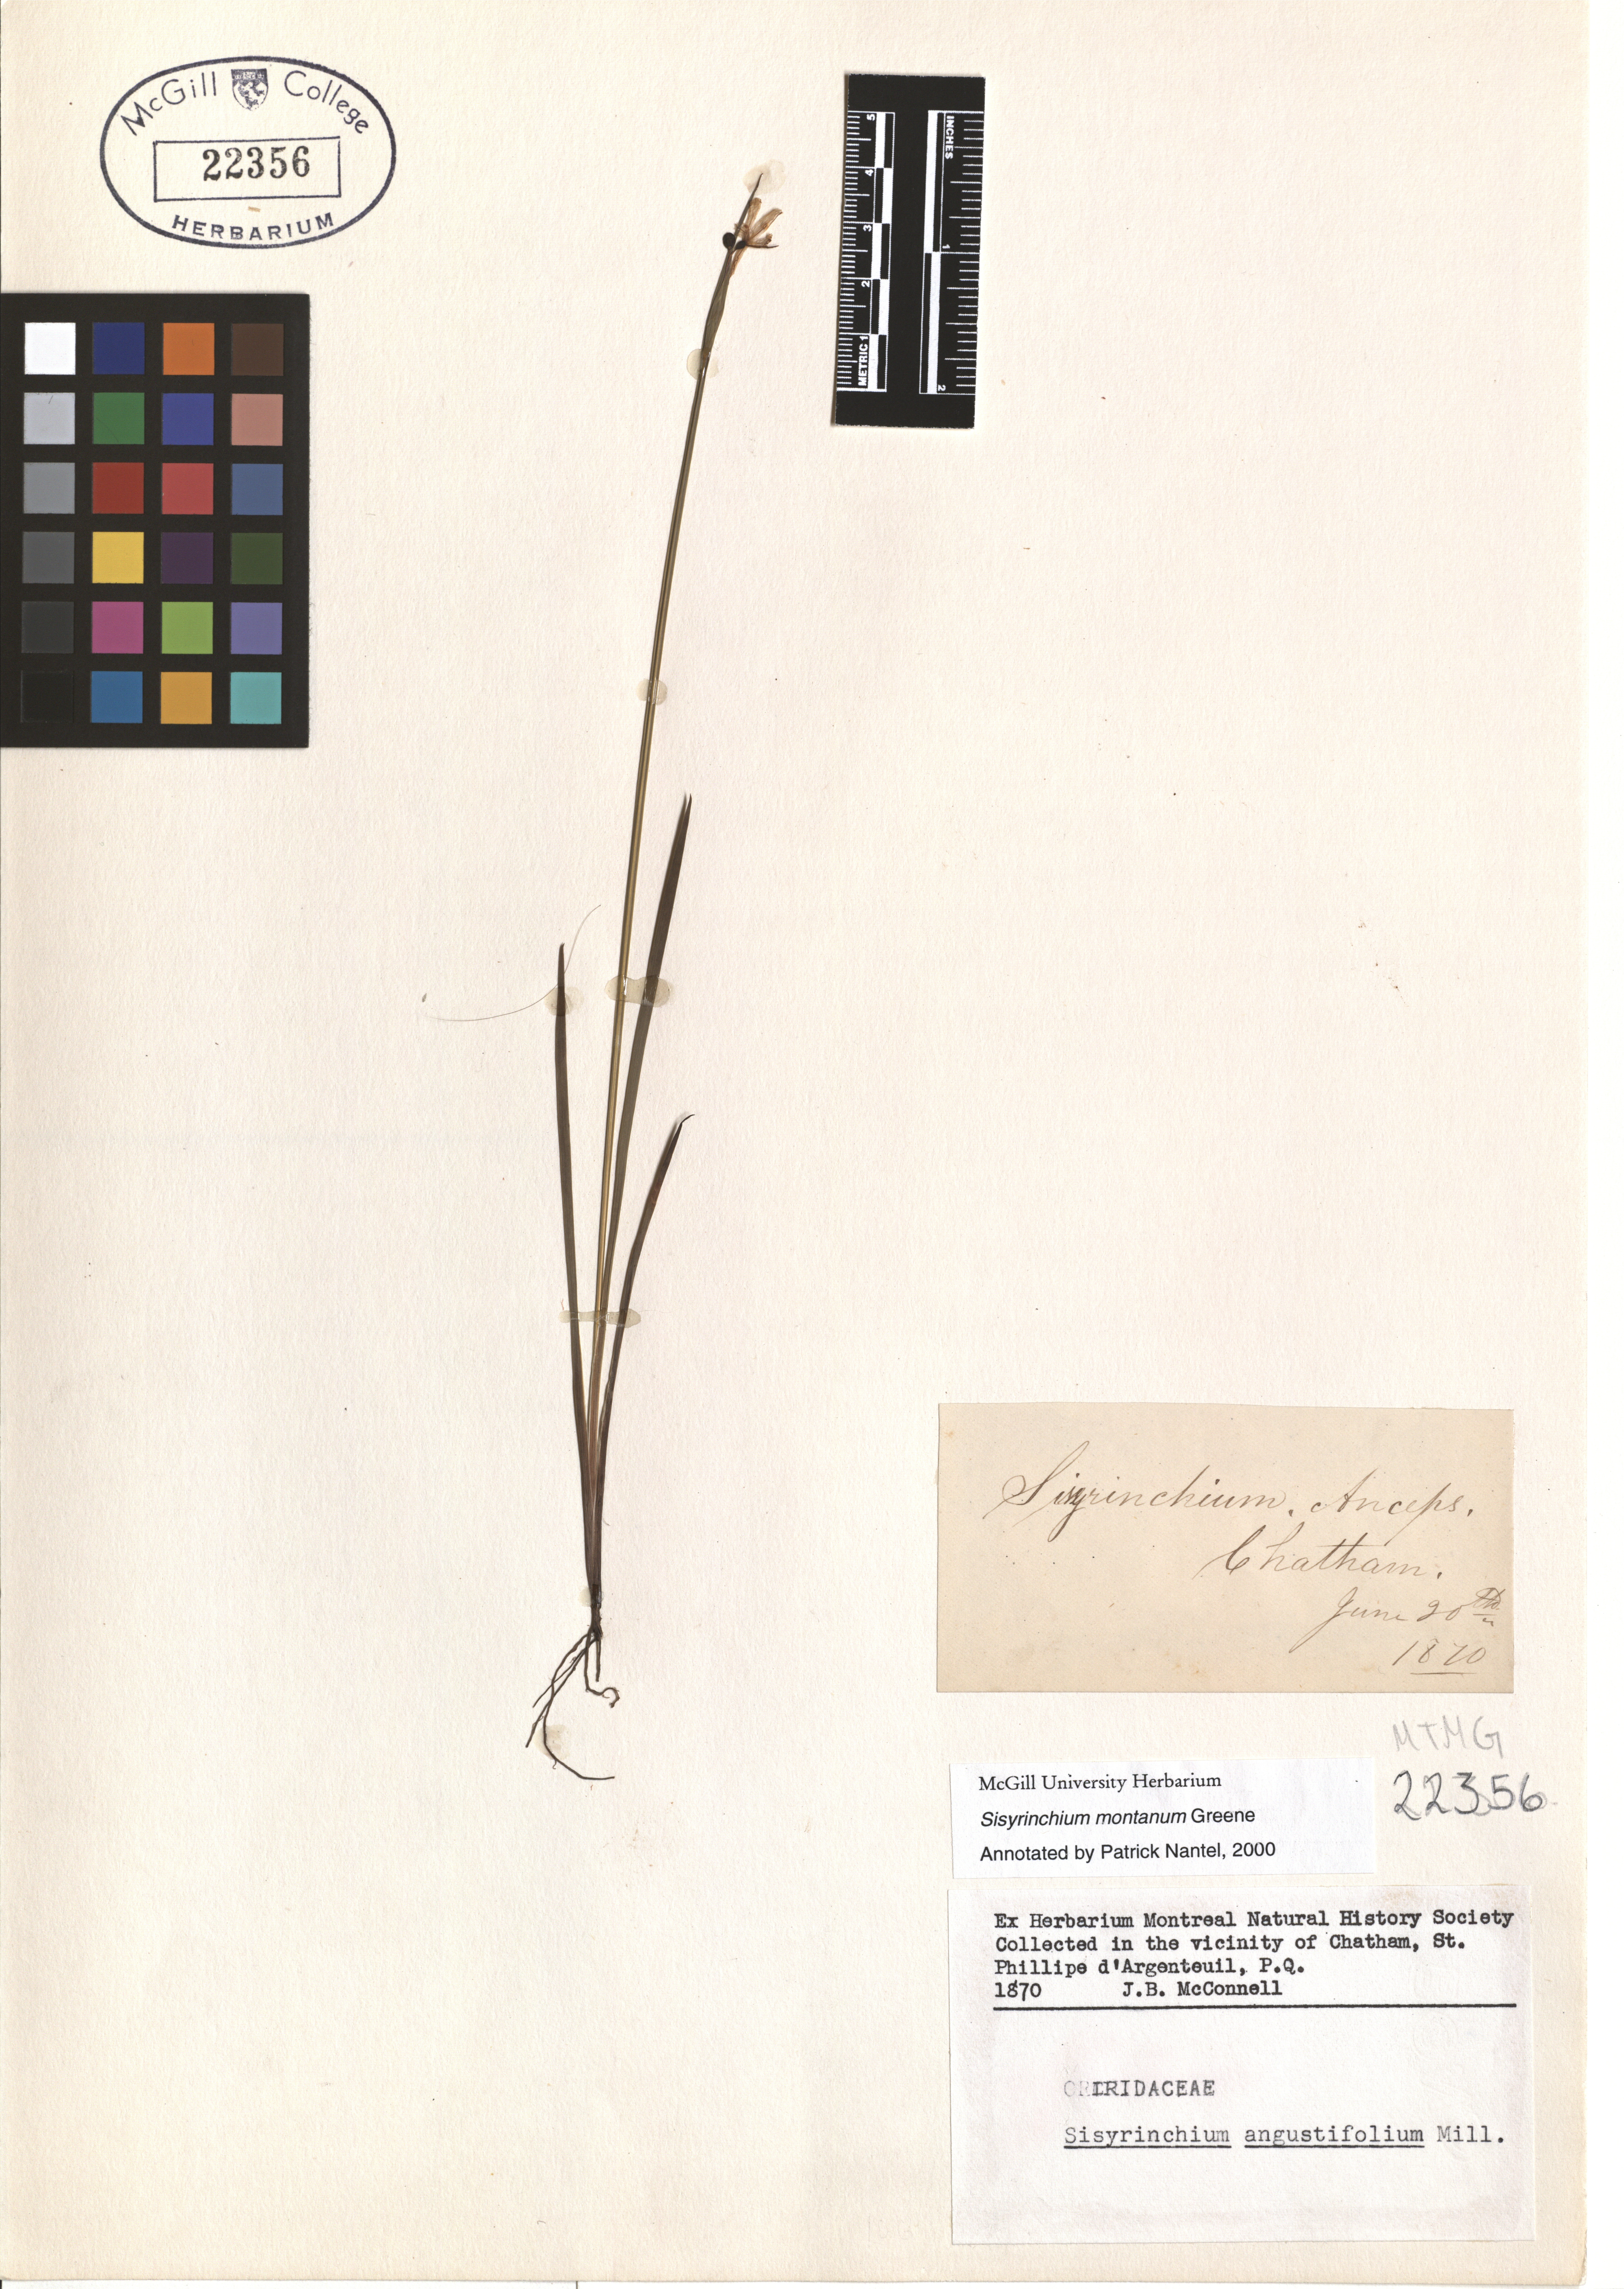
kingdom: Plantae
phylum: Tracheophyta
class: Liliopsida
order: Asparagales
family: Iridaceae
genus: Sisyrinchium
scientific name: Sisyrinchium montanum
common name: American blue-eyed-grass
